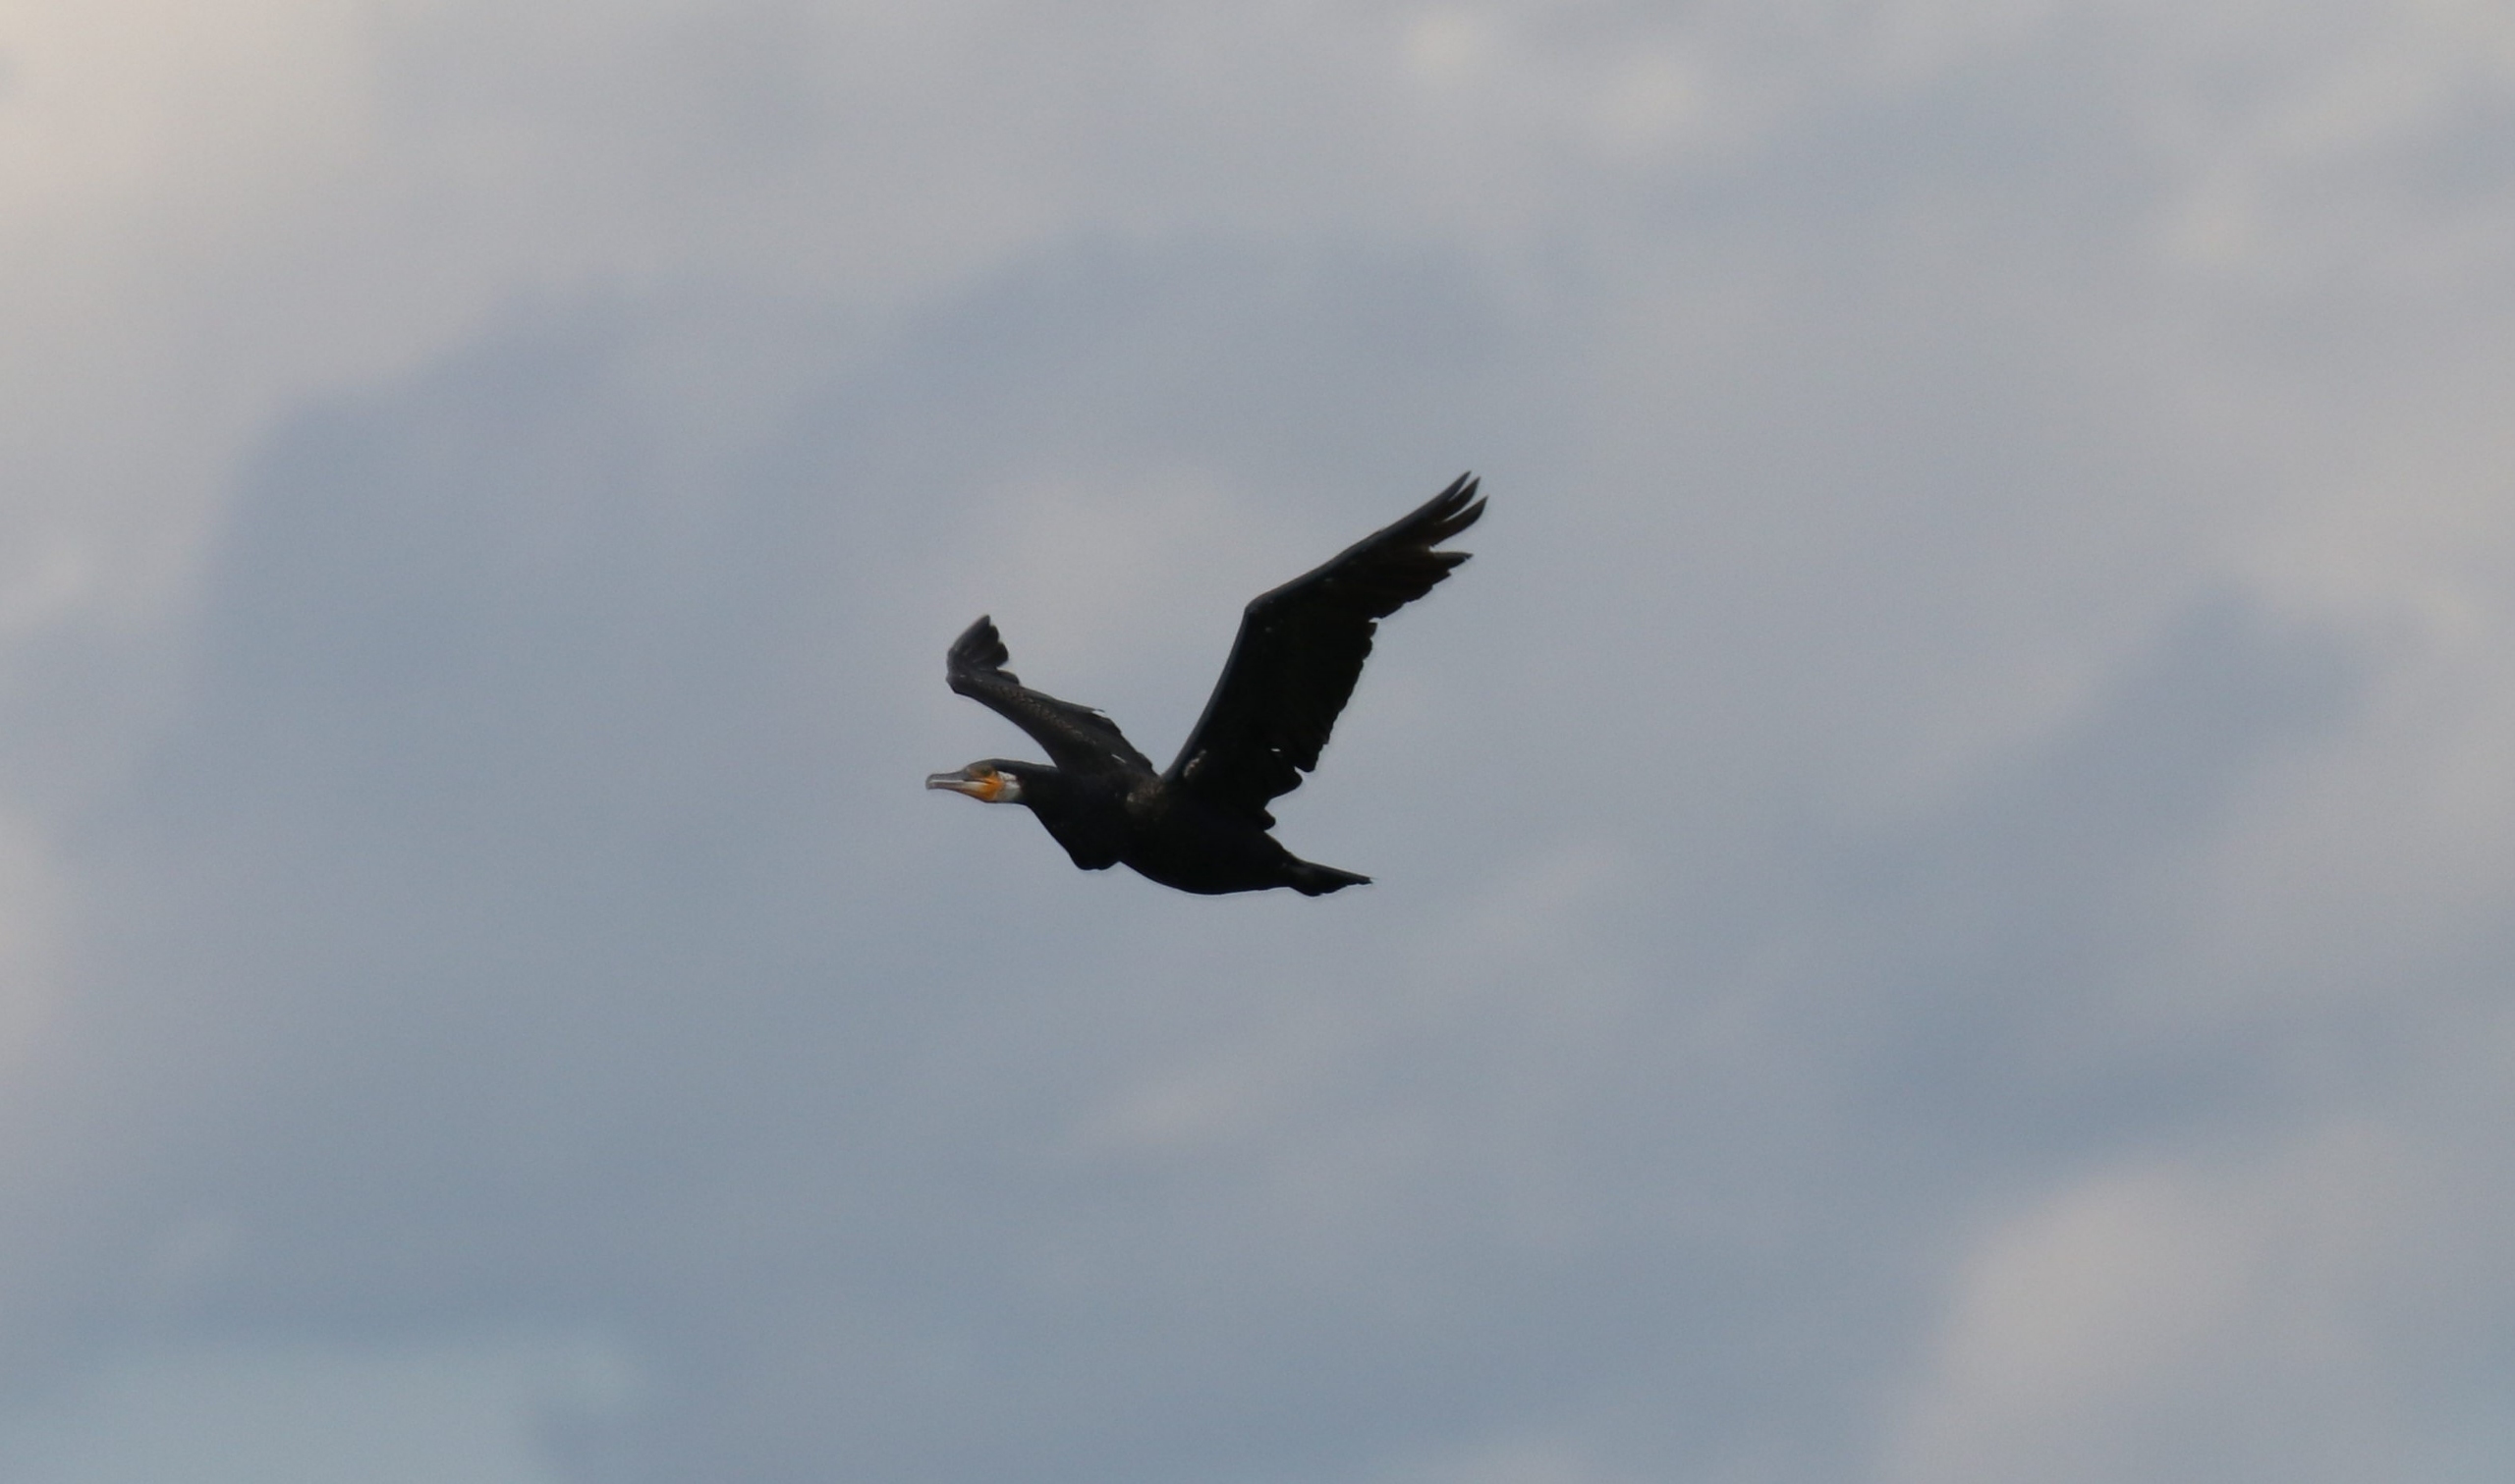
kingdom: Animalia
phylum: Chordata
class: Aves
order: Suliformes
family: Phalacrocoracidae
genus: Phalacrocorax
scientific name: Phalacrocorax carbo
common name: Skarv
